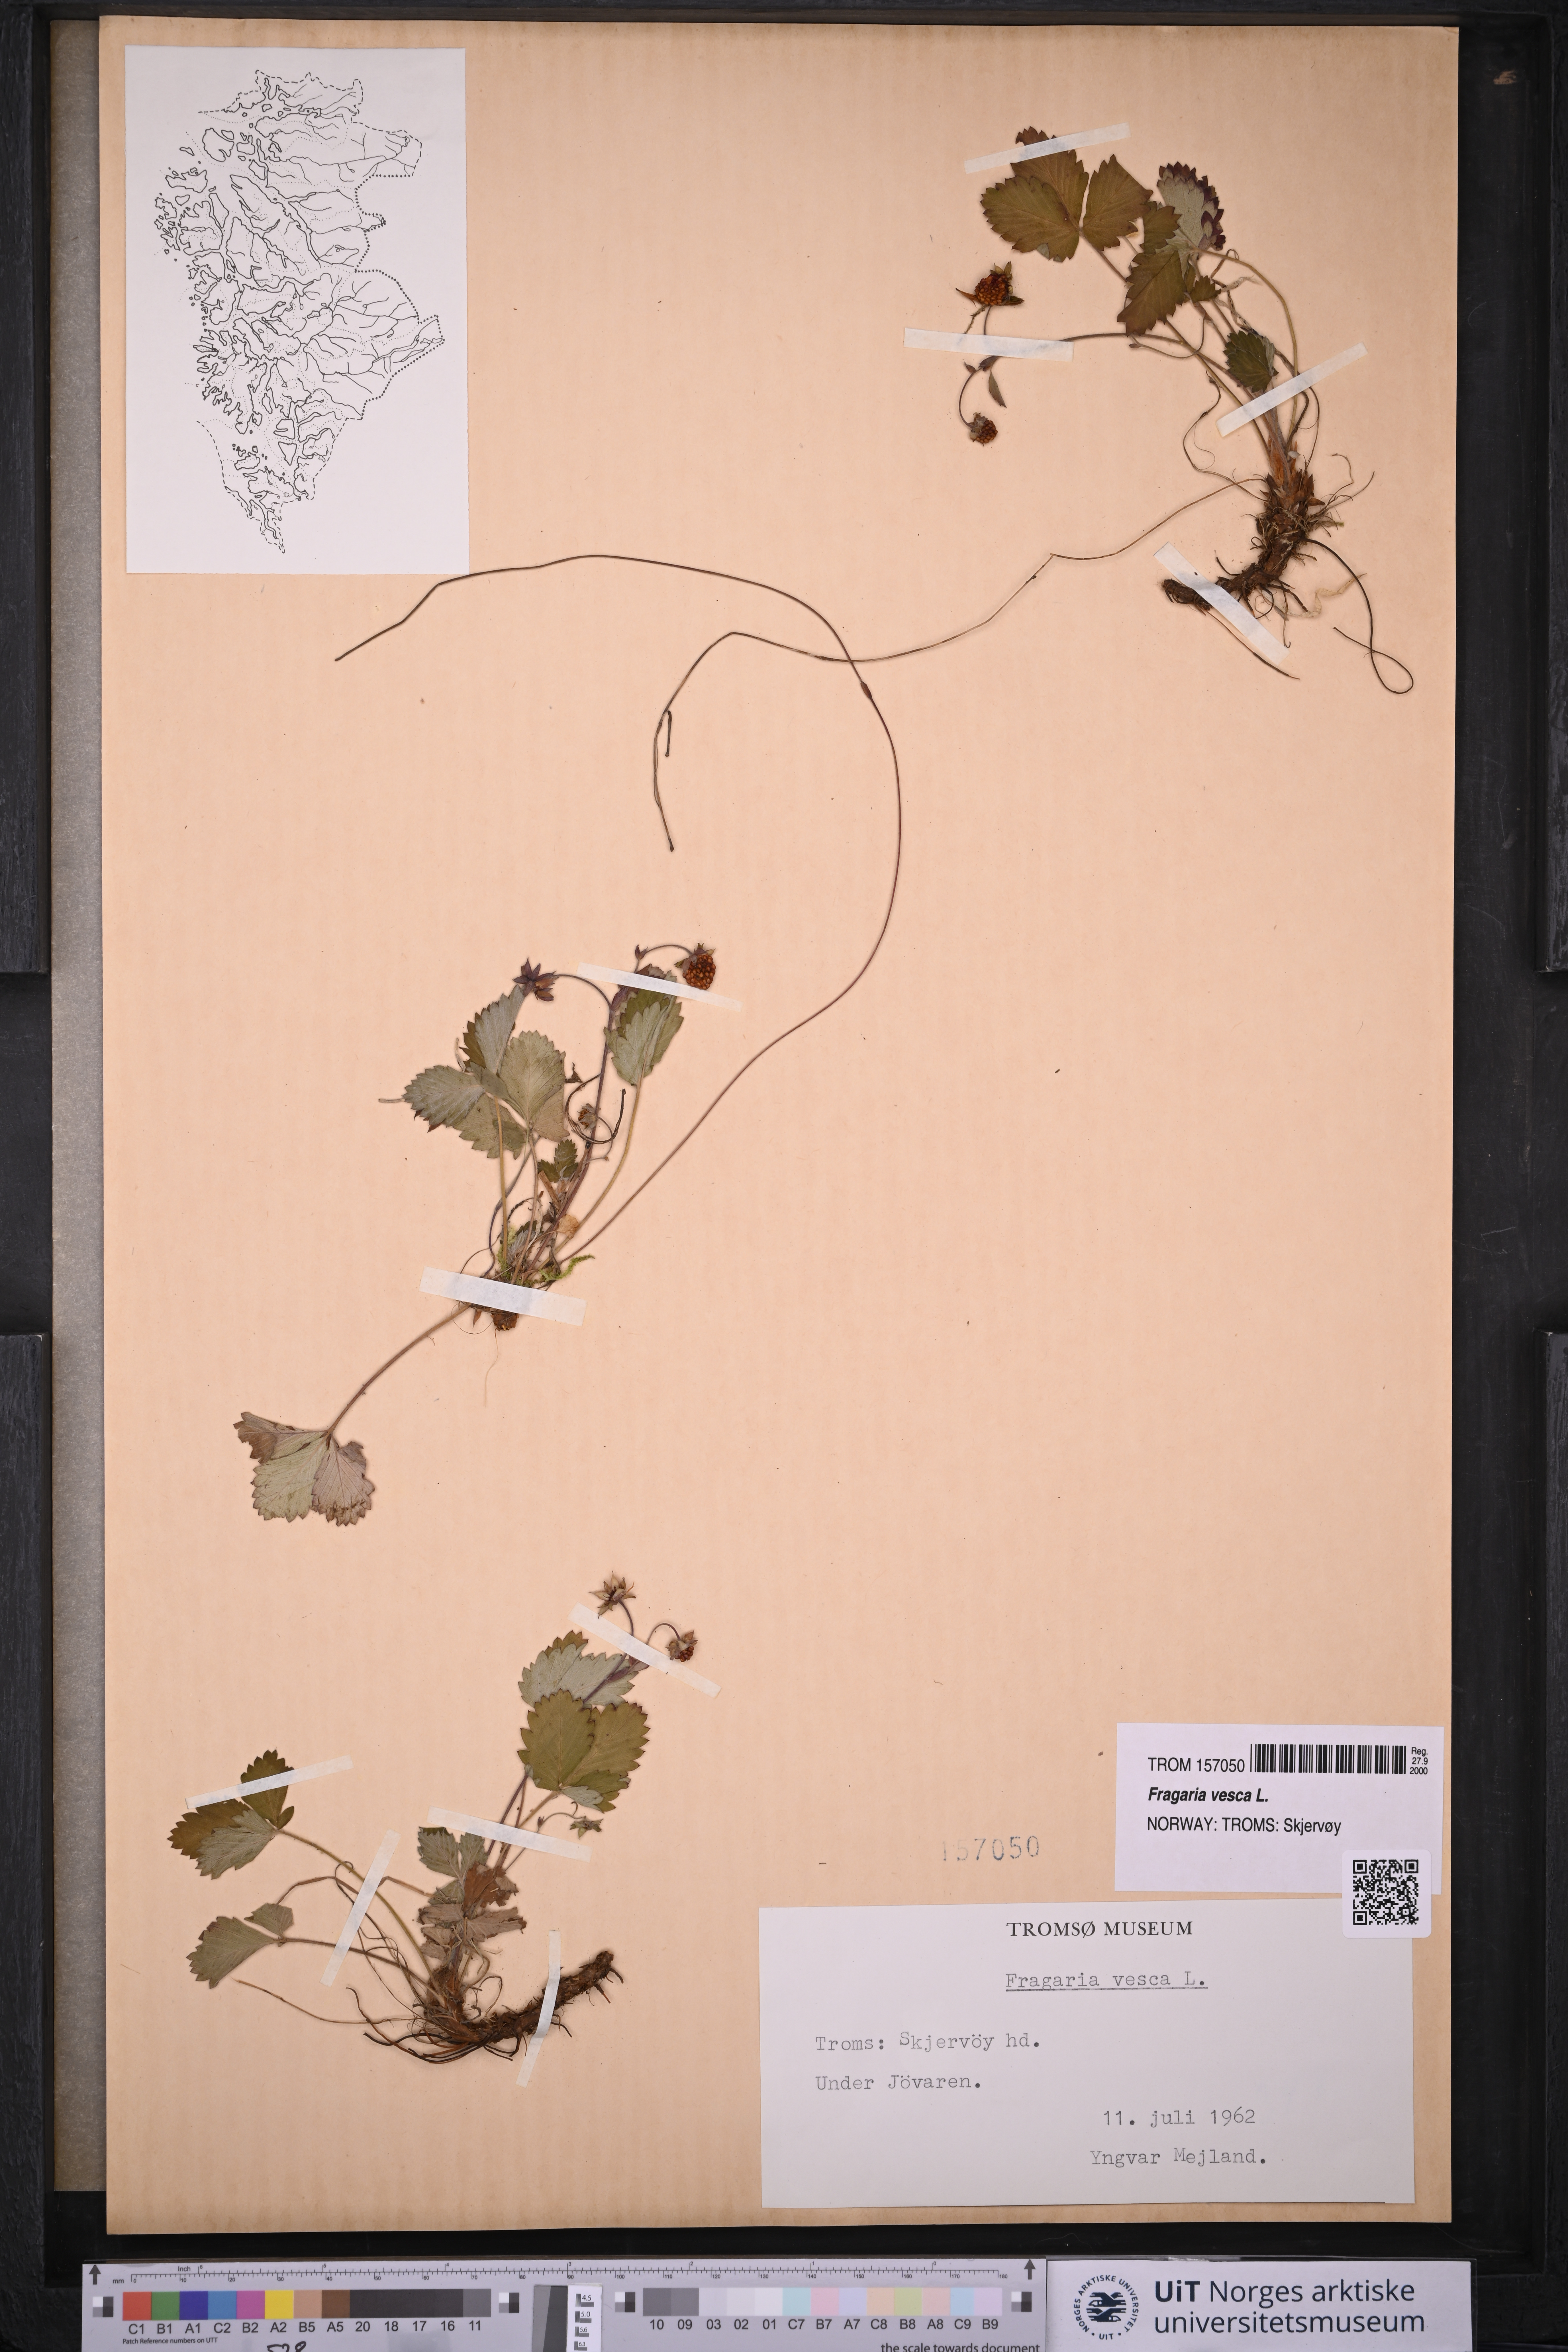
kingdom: Plantae
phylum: Tracheophyta
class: Magnoliopsida
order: Rosales
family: Rosaceae
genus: Fragaria
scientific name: Fragaria vesca
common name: Wild strawberry
